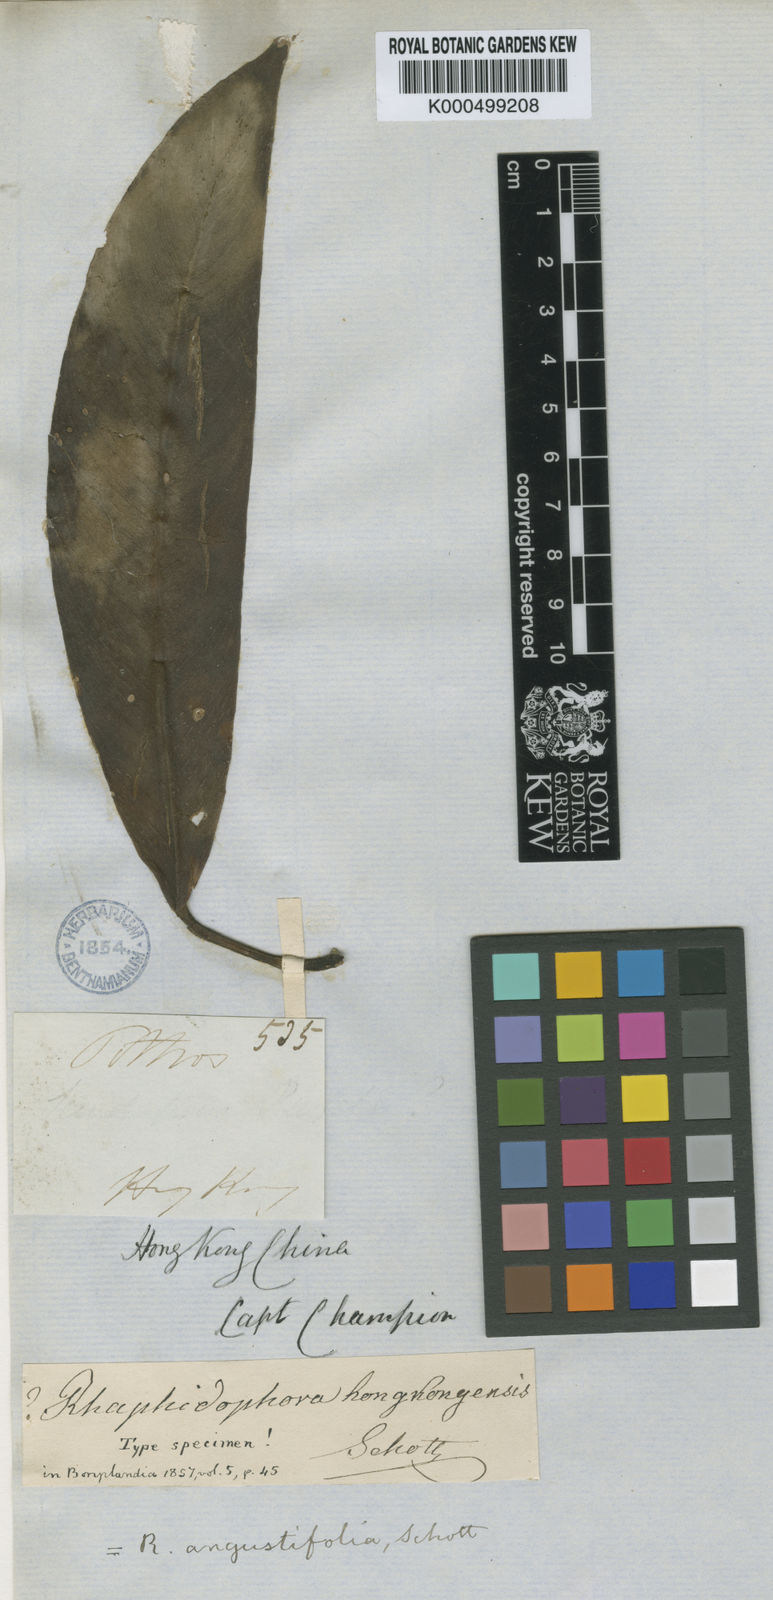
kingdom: Plantae
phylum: Tracheophyta
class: Liliopsida
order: Alismatales
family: Araceae
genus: Rhaphidophora
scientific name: Rhaphidophora
